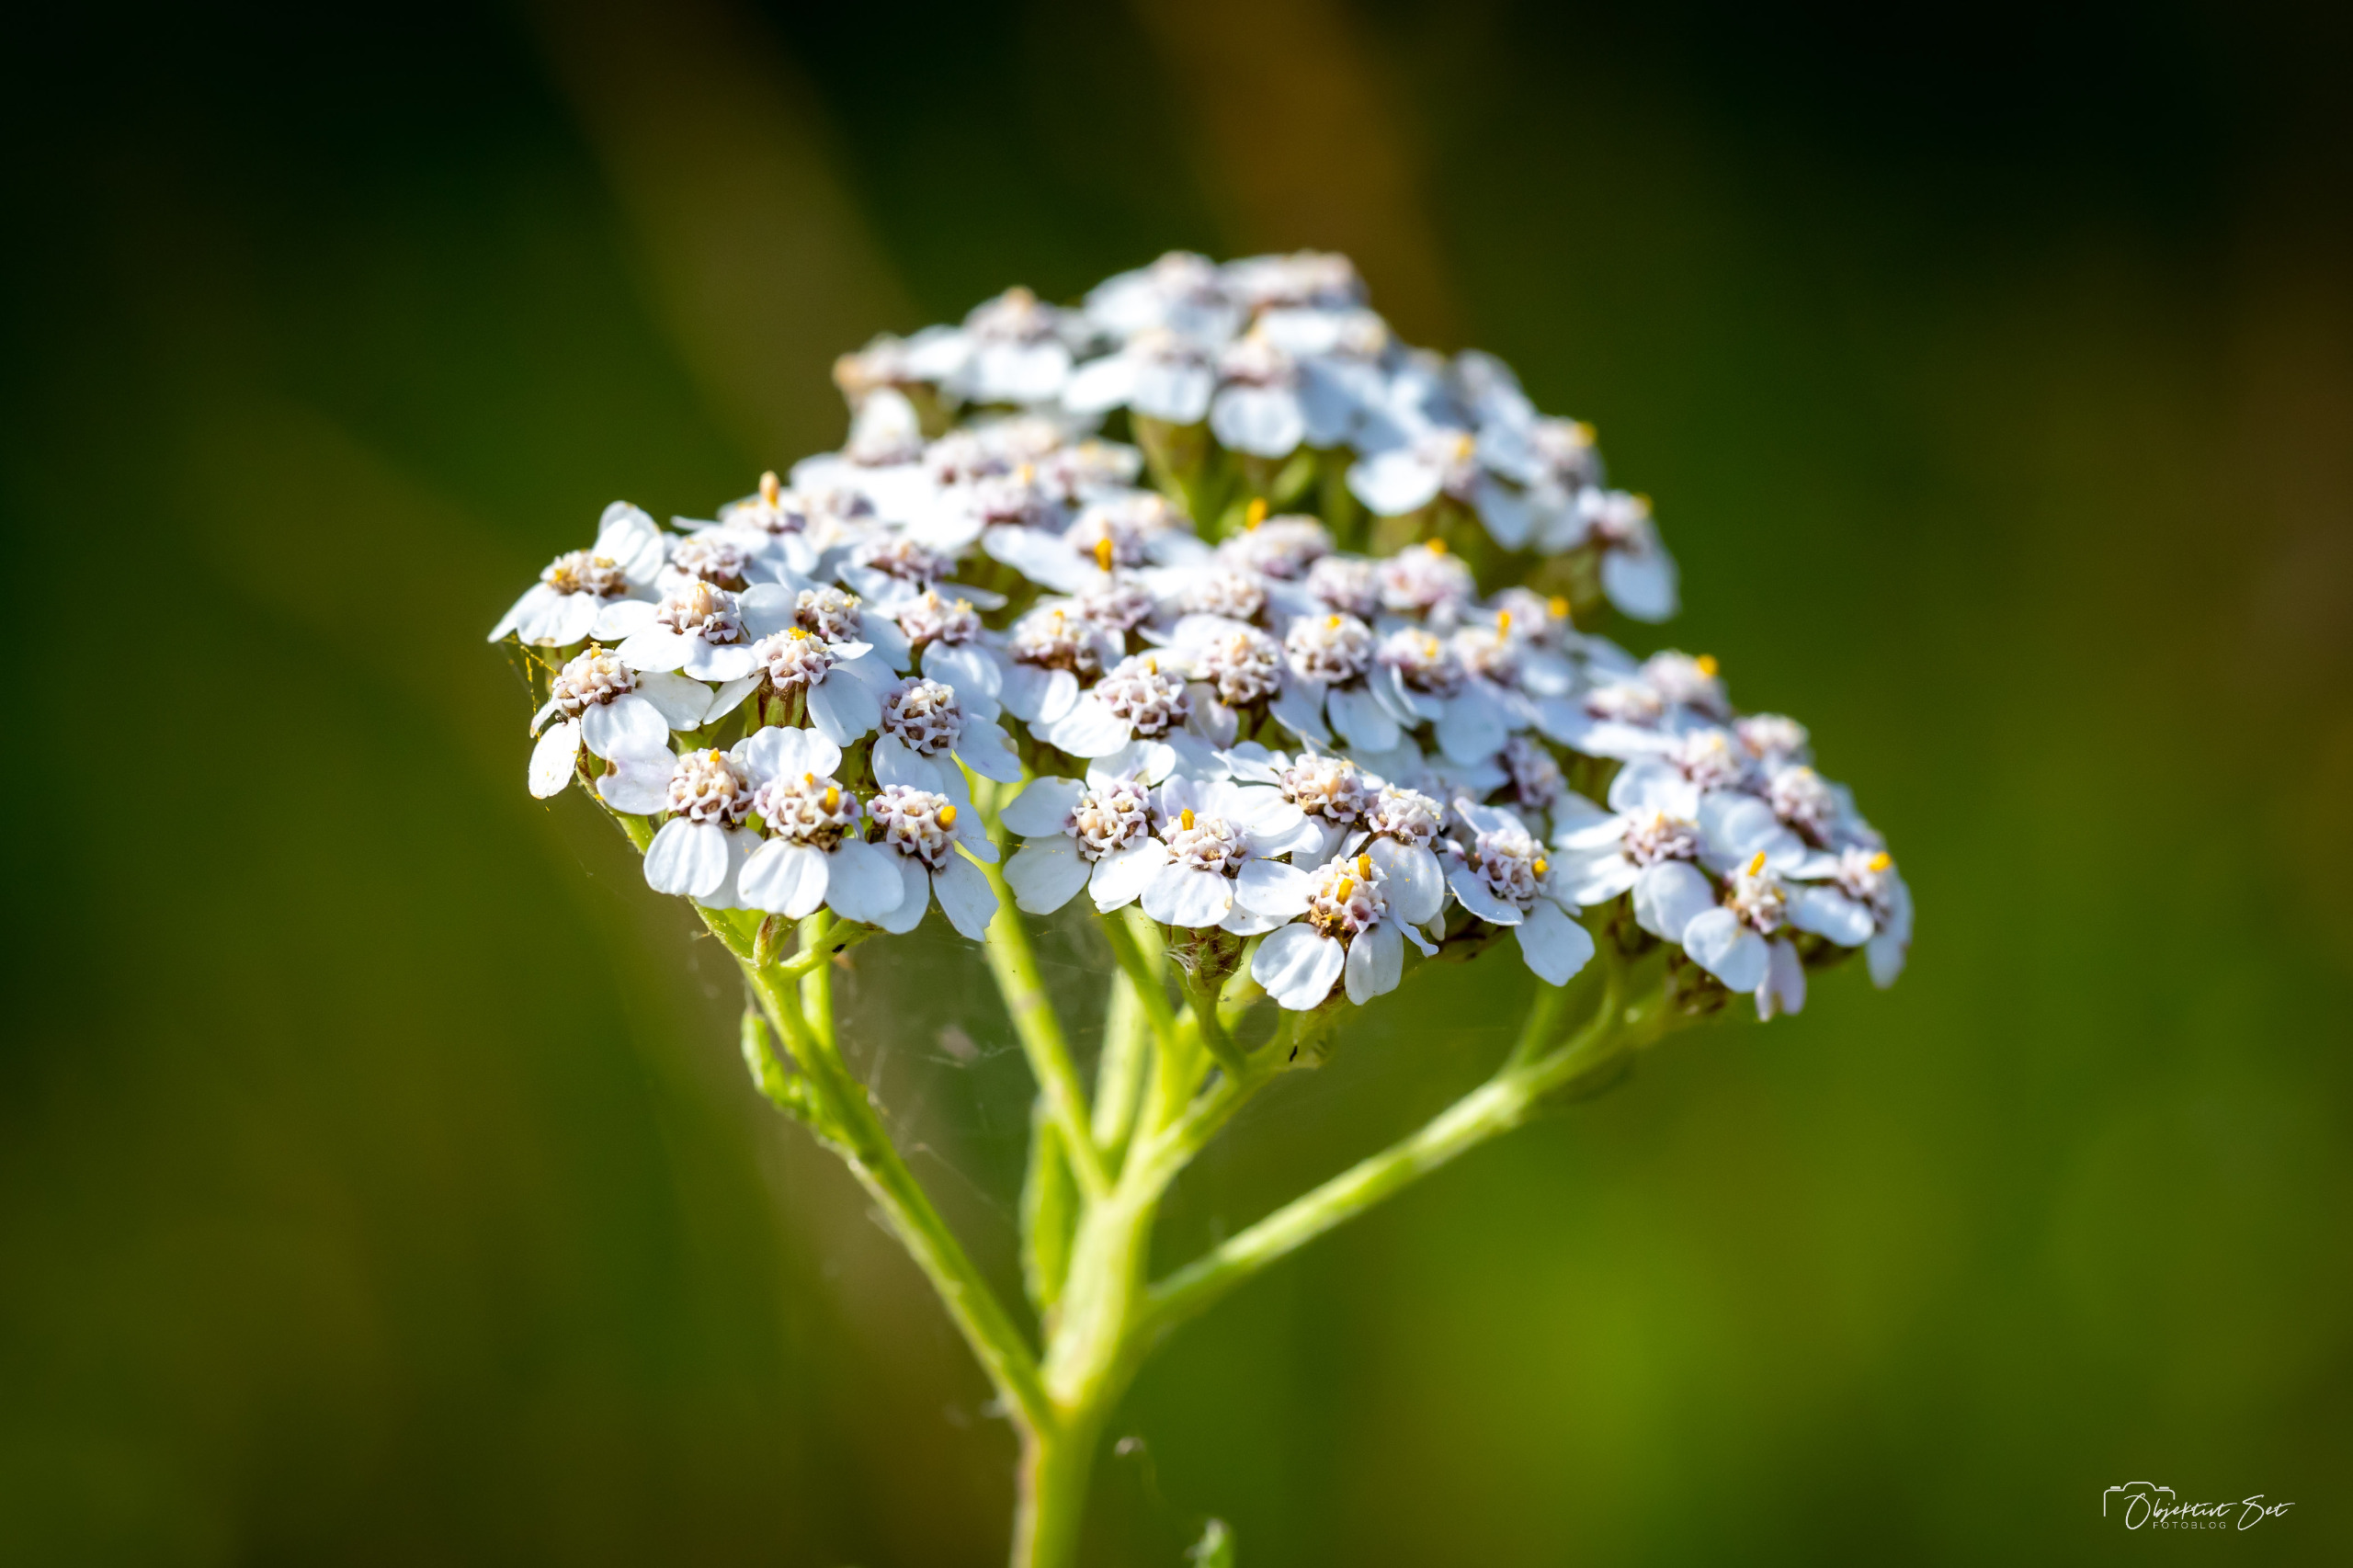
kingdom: Plantae
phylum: Tracheophyta
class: Magnoliopsida
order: Asterales
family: Asteraceae
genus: Achillea
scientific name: Achillea millefolium
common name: Almindelig røllike
